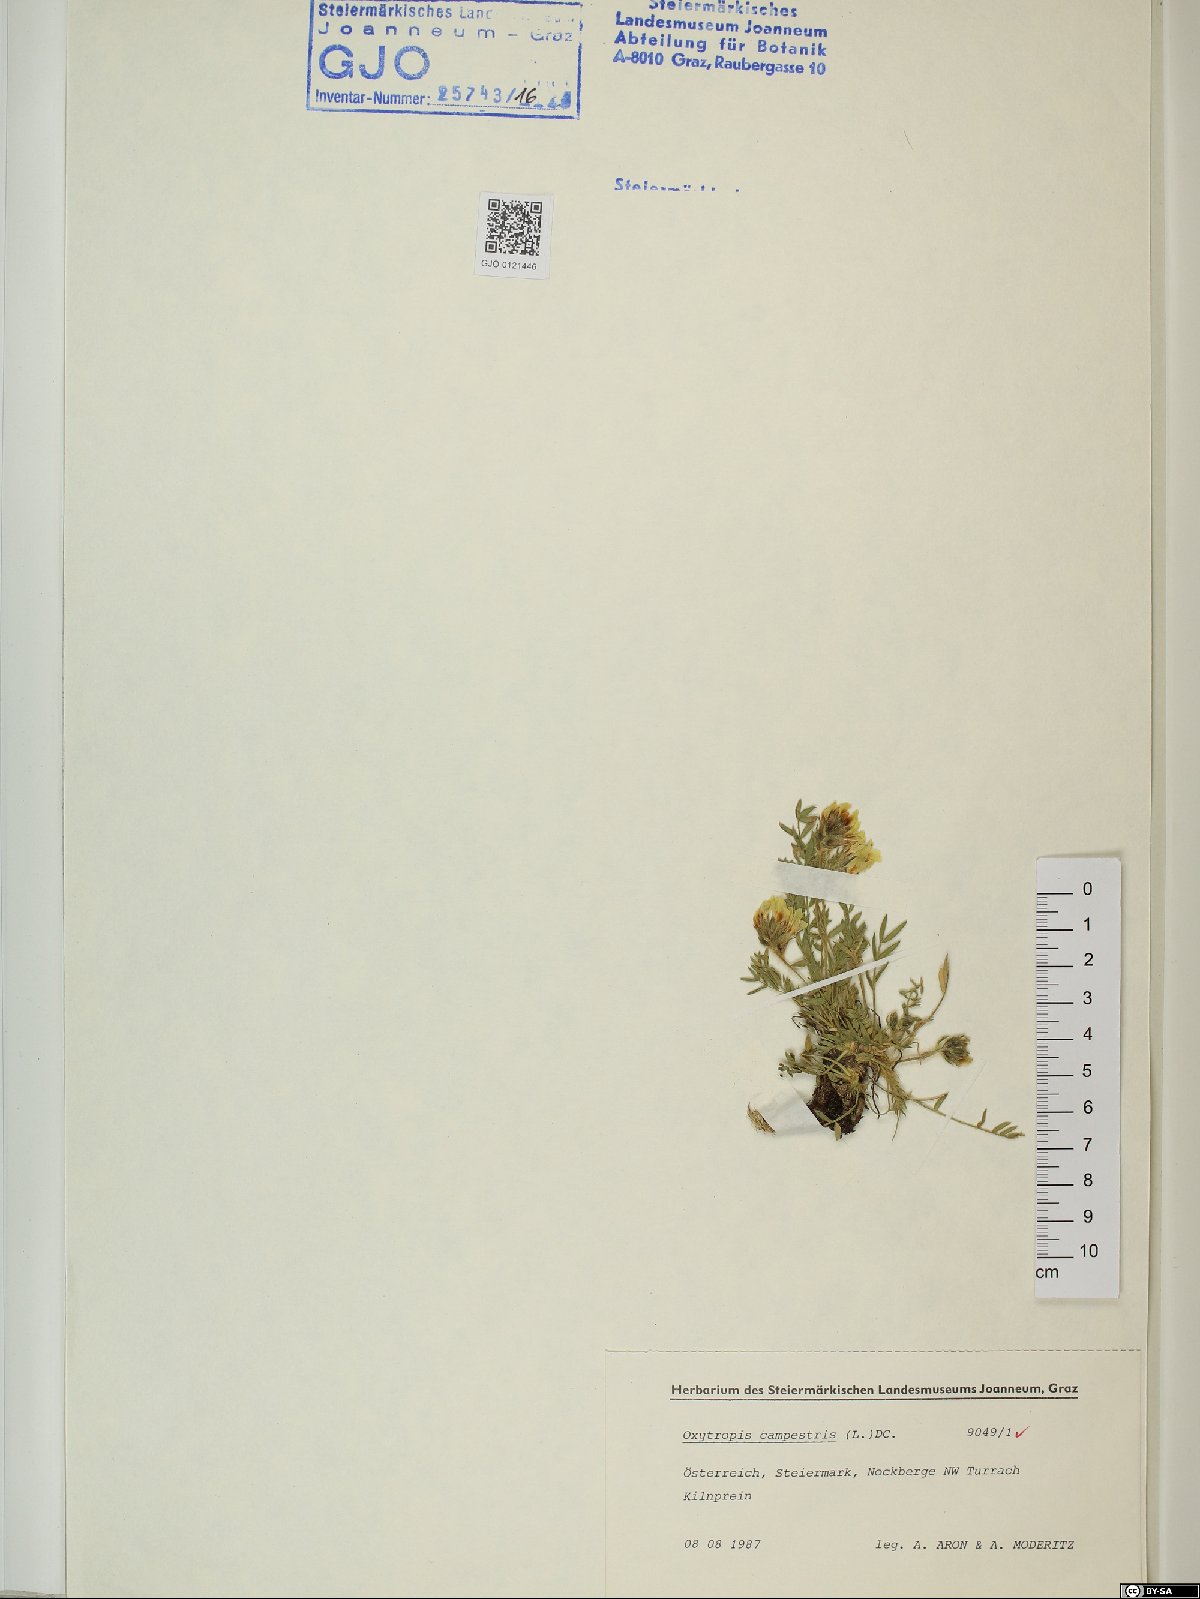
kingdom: Plantae
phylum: Tracheophyta
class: Magnoliopsida
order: Fabales
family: Fabaceae
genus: Oxytropis
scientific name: Oxytropis campestris
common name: Field locoweed
